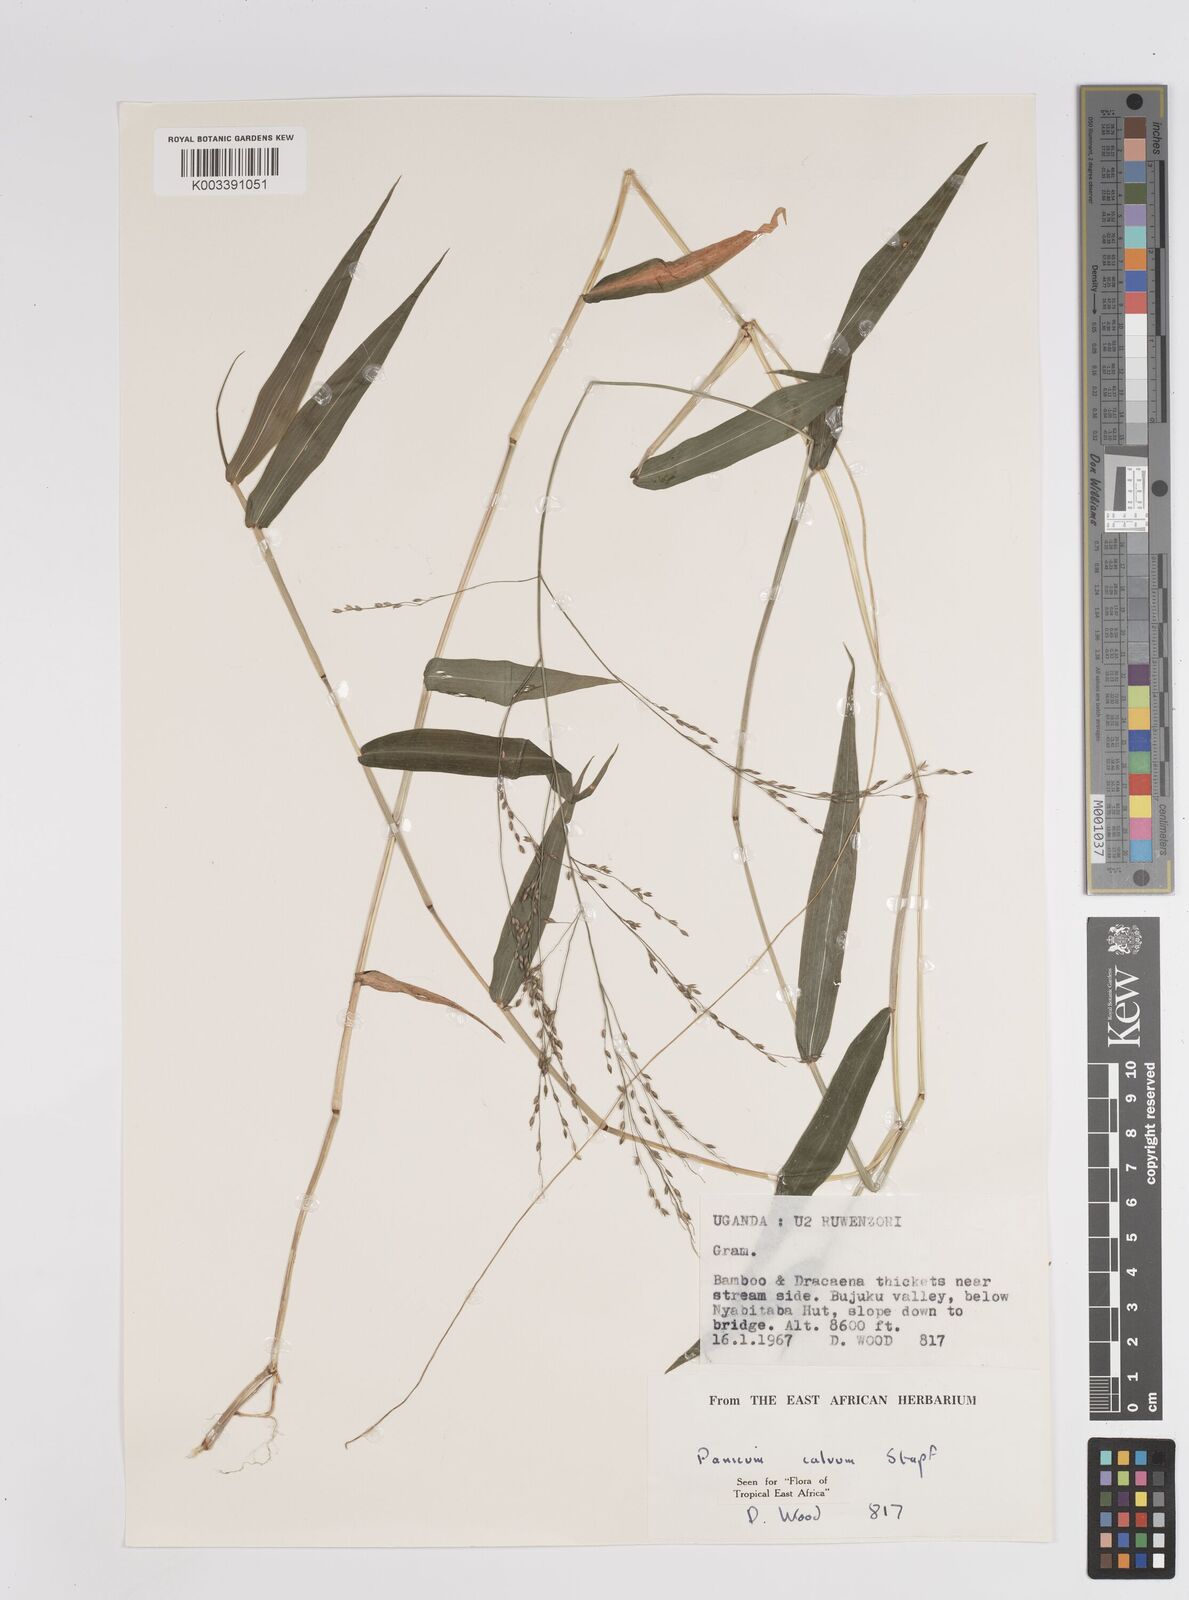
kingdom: Plantae
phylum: Tracheophyta
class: Liliopsida
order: Poales
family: Poaceae
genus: Panicum
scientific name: Panicum calvum
